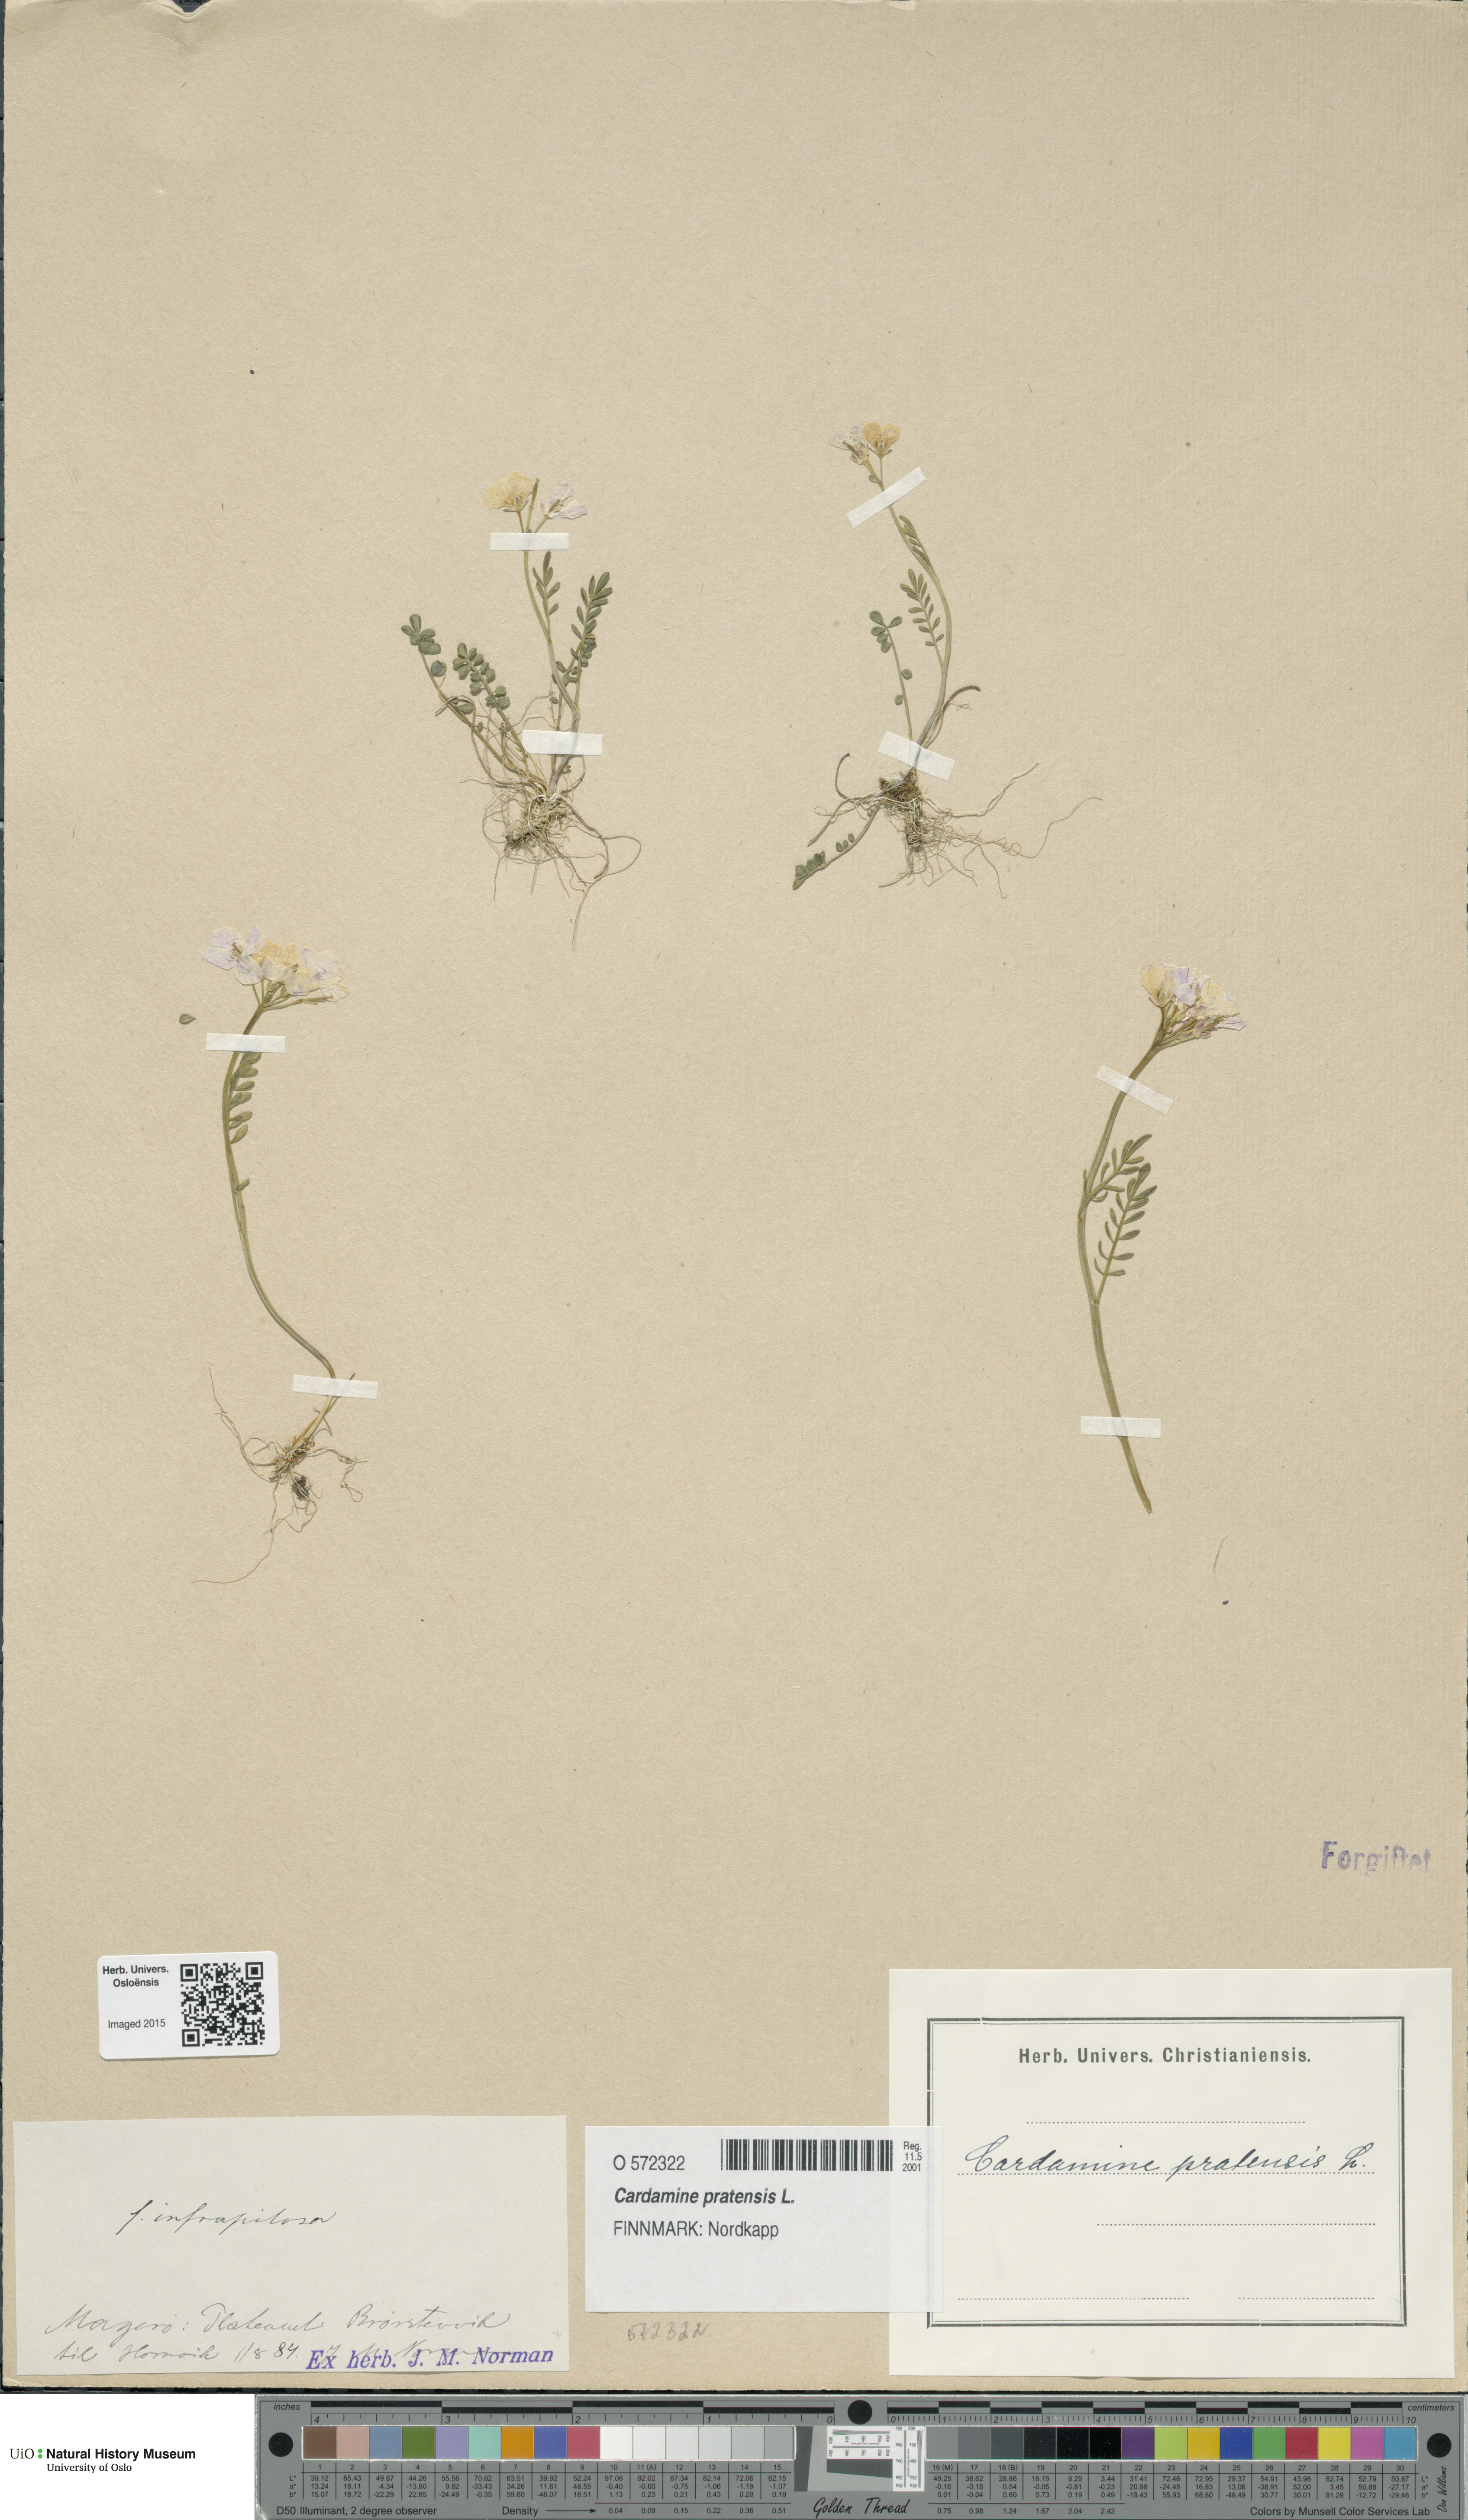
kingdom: Plantae
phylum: Tracheophyta
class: Magnoliopsida
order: Brassicales
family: Brassicaceae
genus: Cardamine
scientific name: Cardamine pratensis
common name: Cuckoo flower
